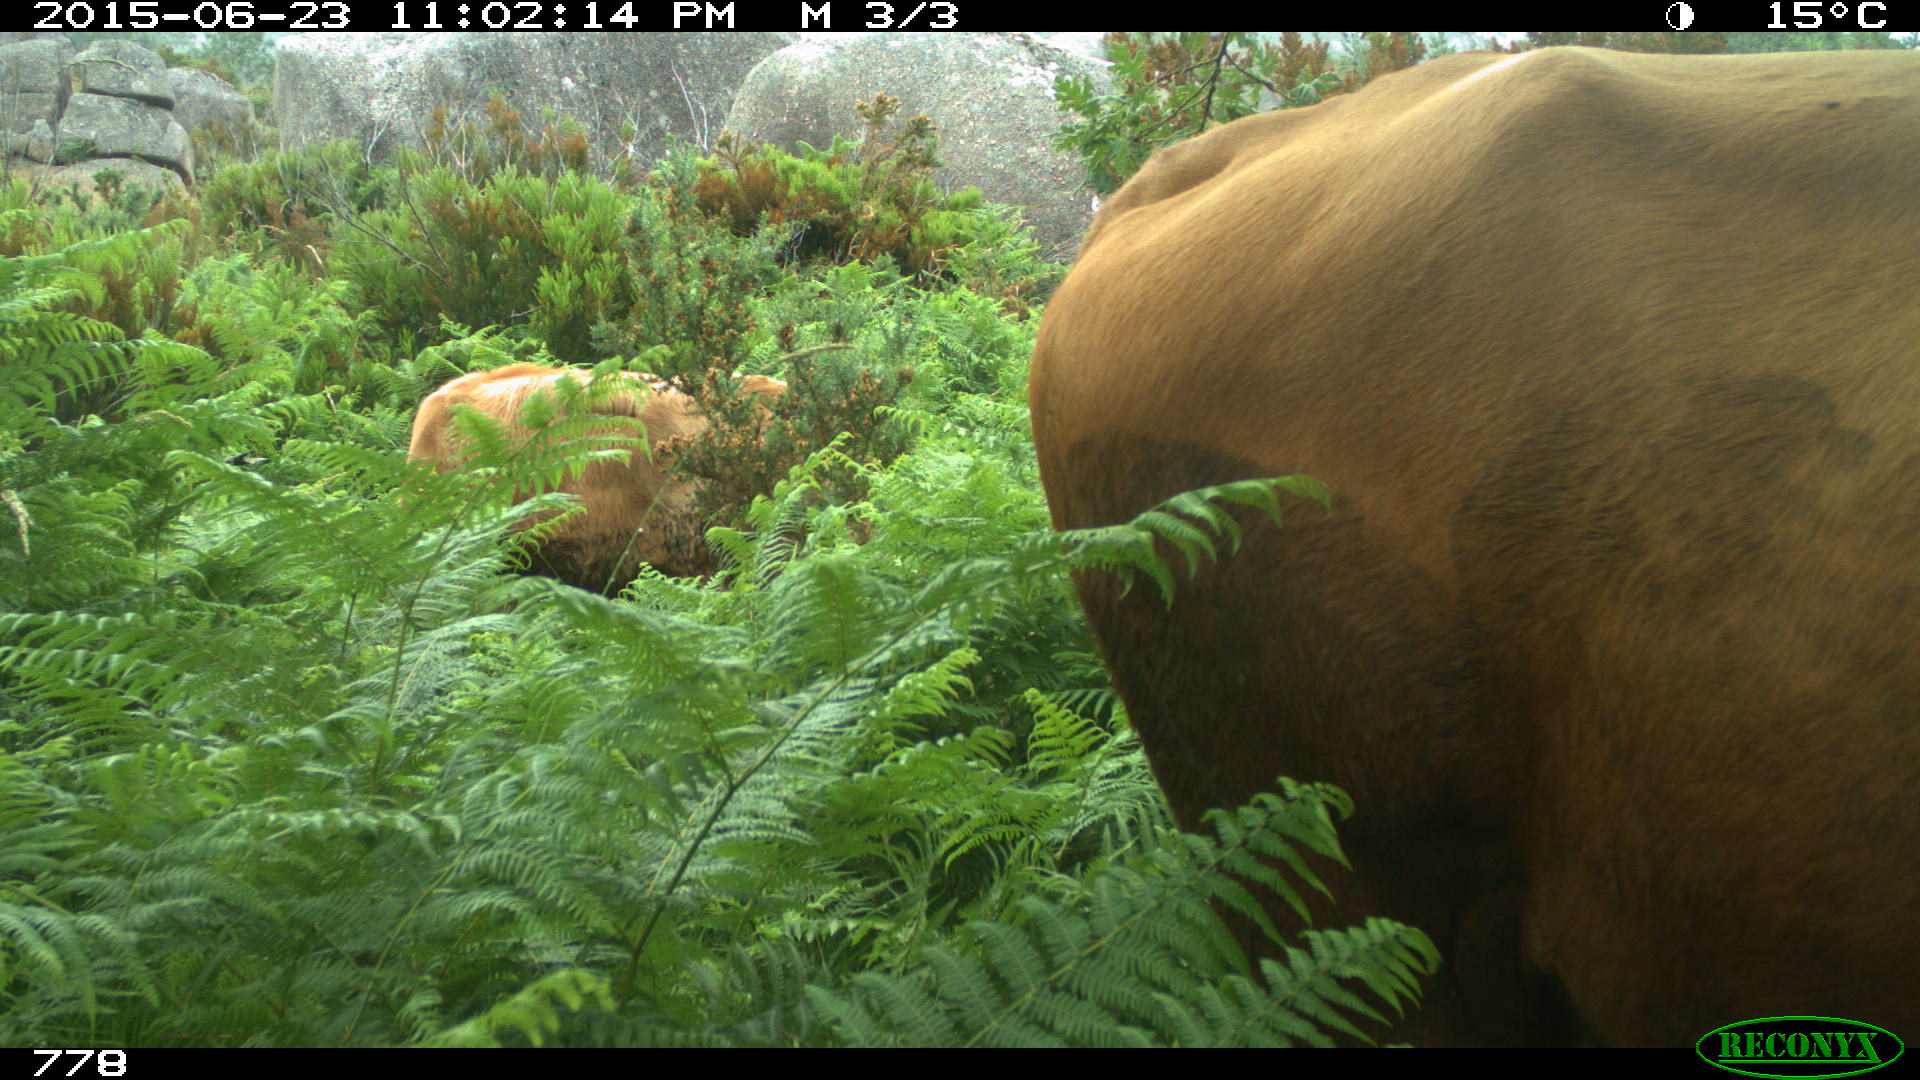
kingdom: Animalia
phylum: Chordata
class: Mammalia
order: Artiodactyla
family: Bovidae
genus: Bos
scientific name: Bos taurus
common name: Domesticated cattle
